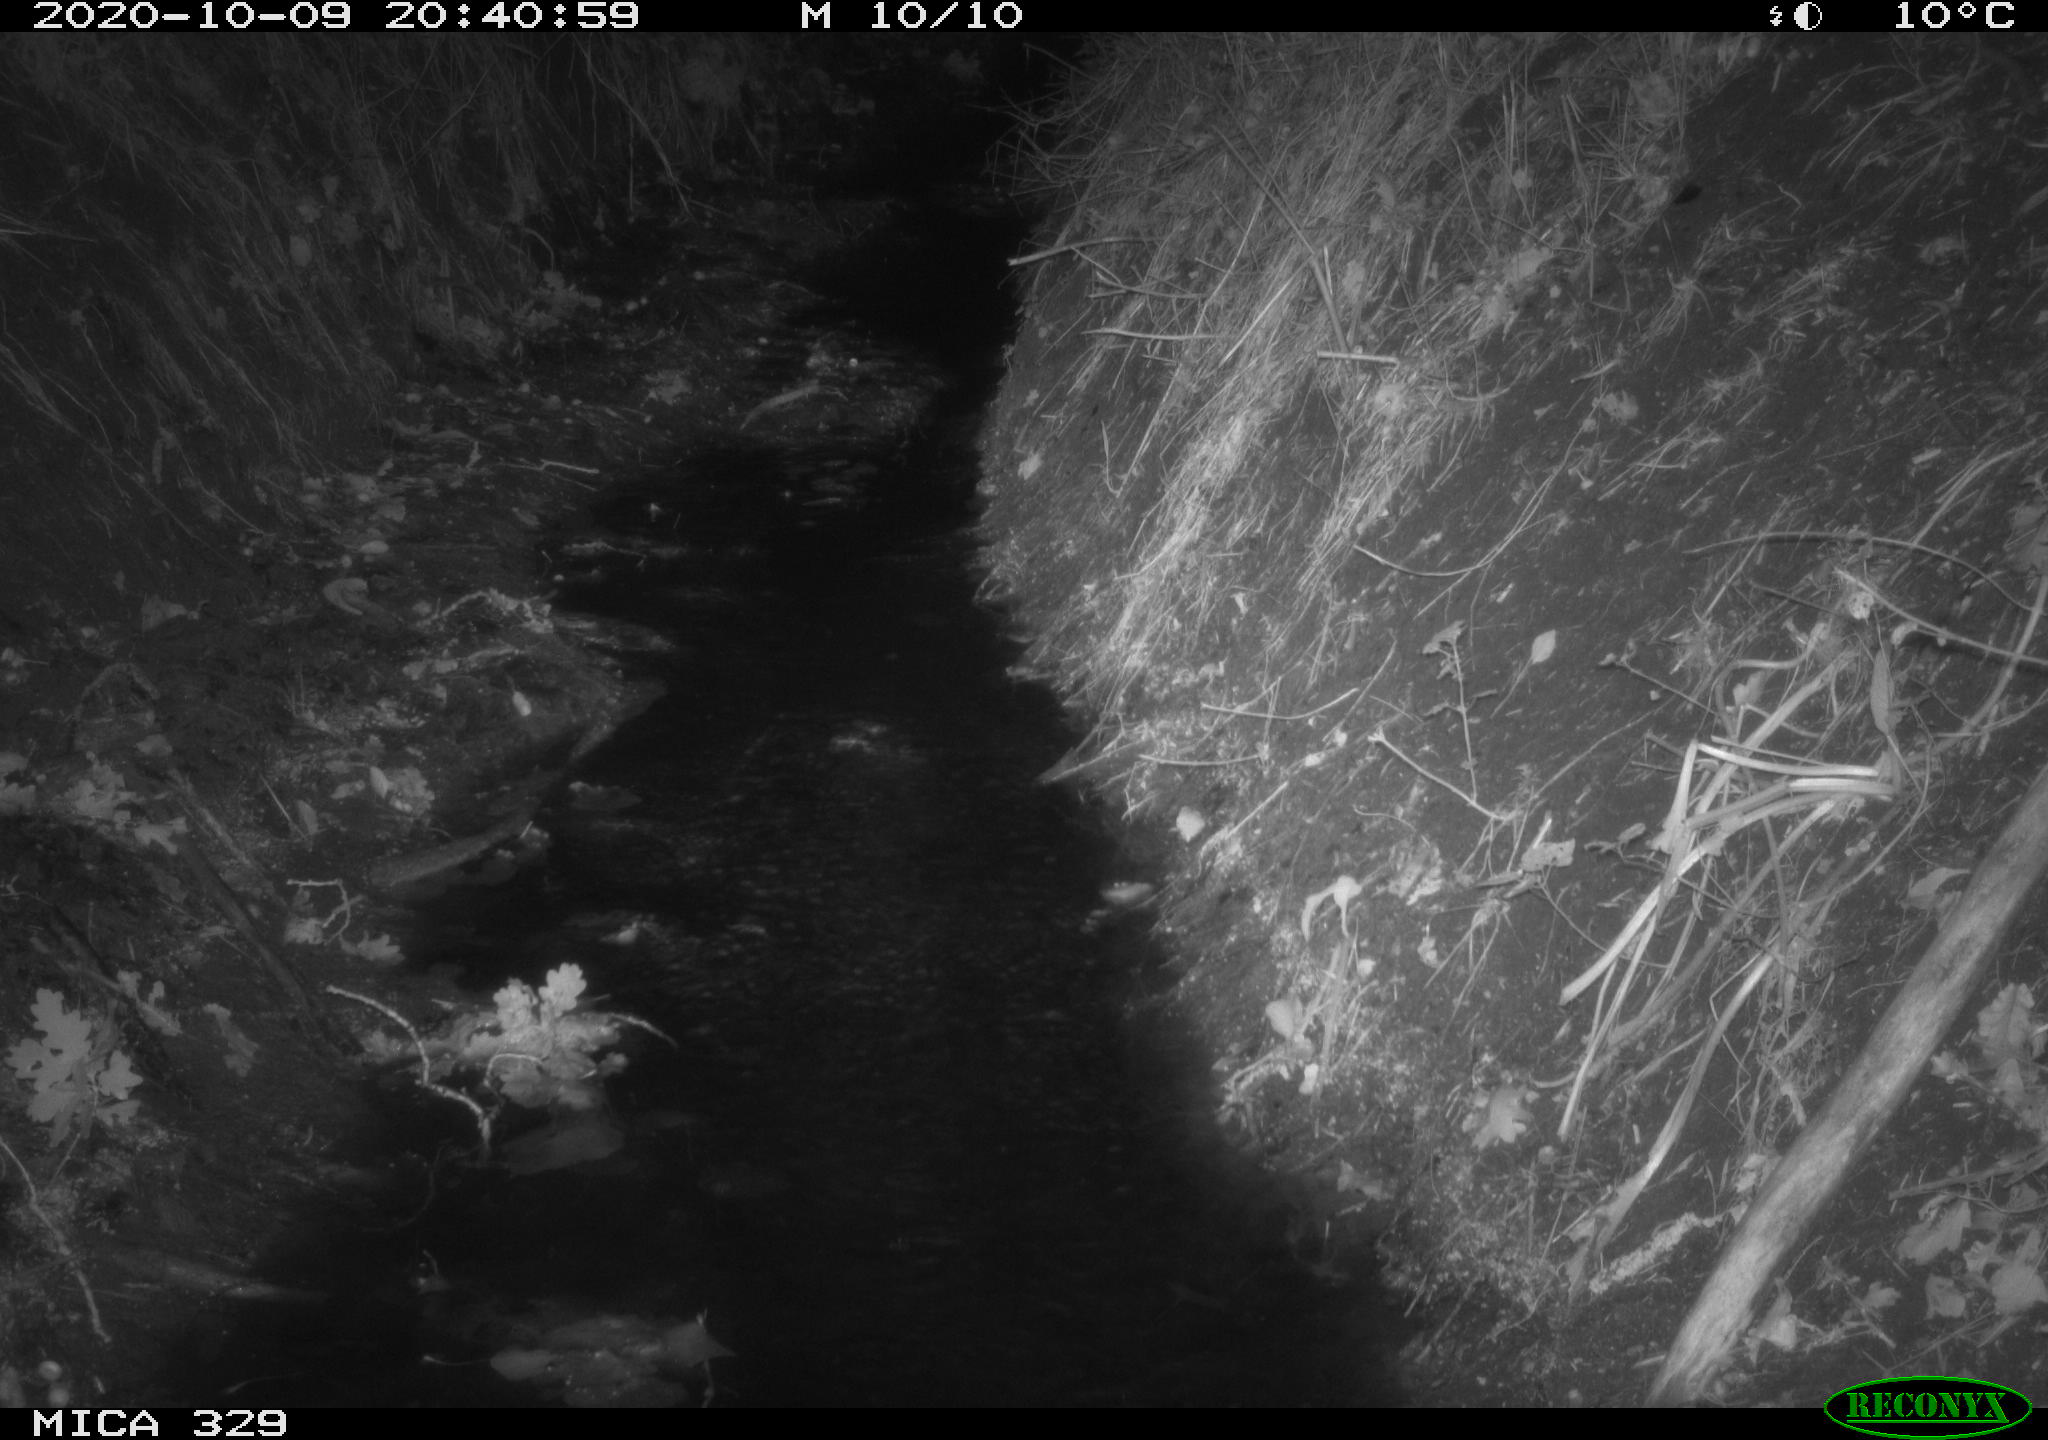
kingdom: Animalia
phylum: Chordata
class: Mammalia
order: Rodentia
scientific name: Rodentia
